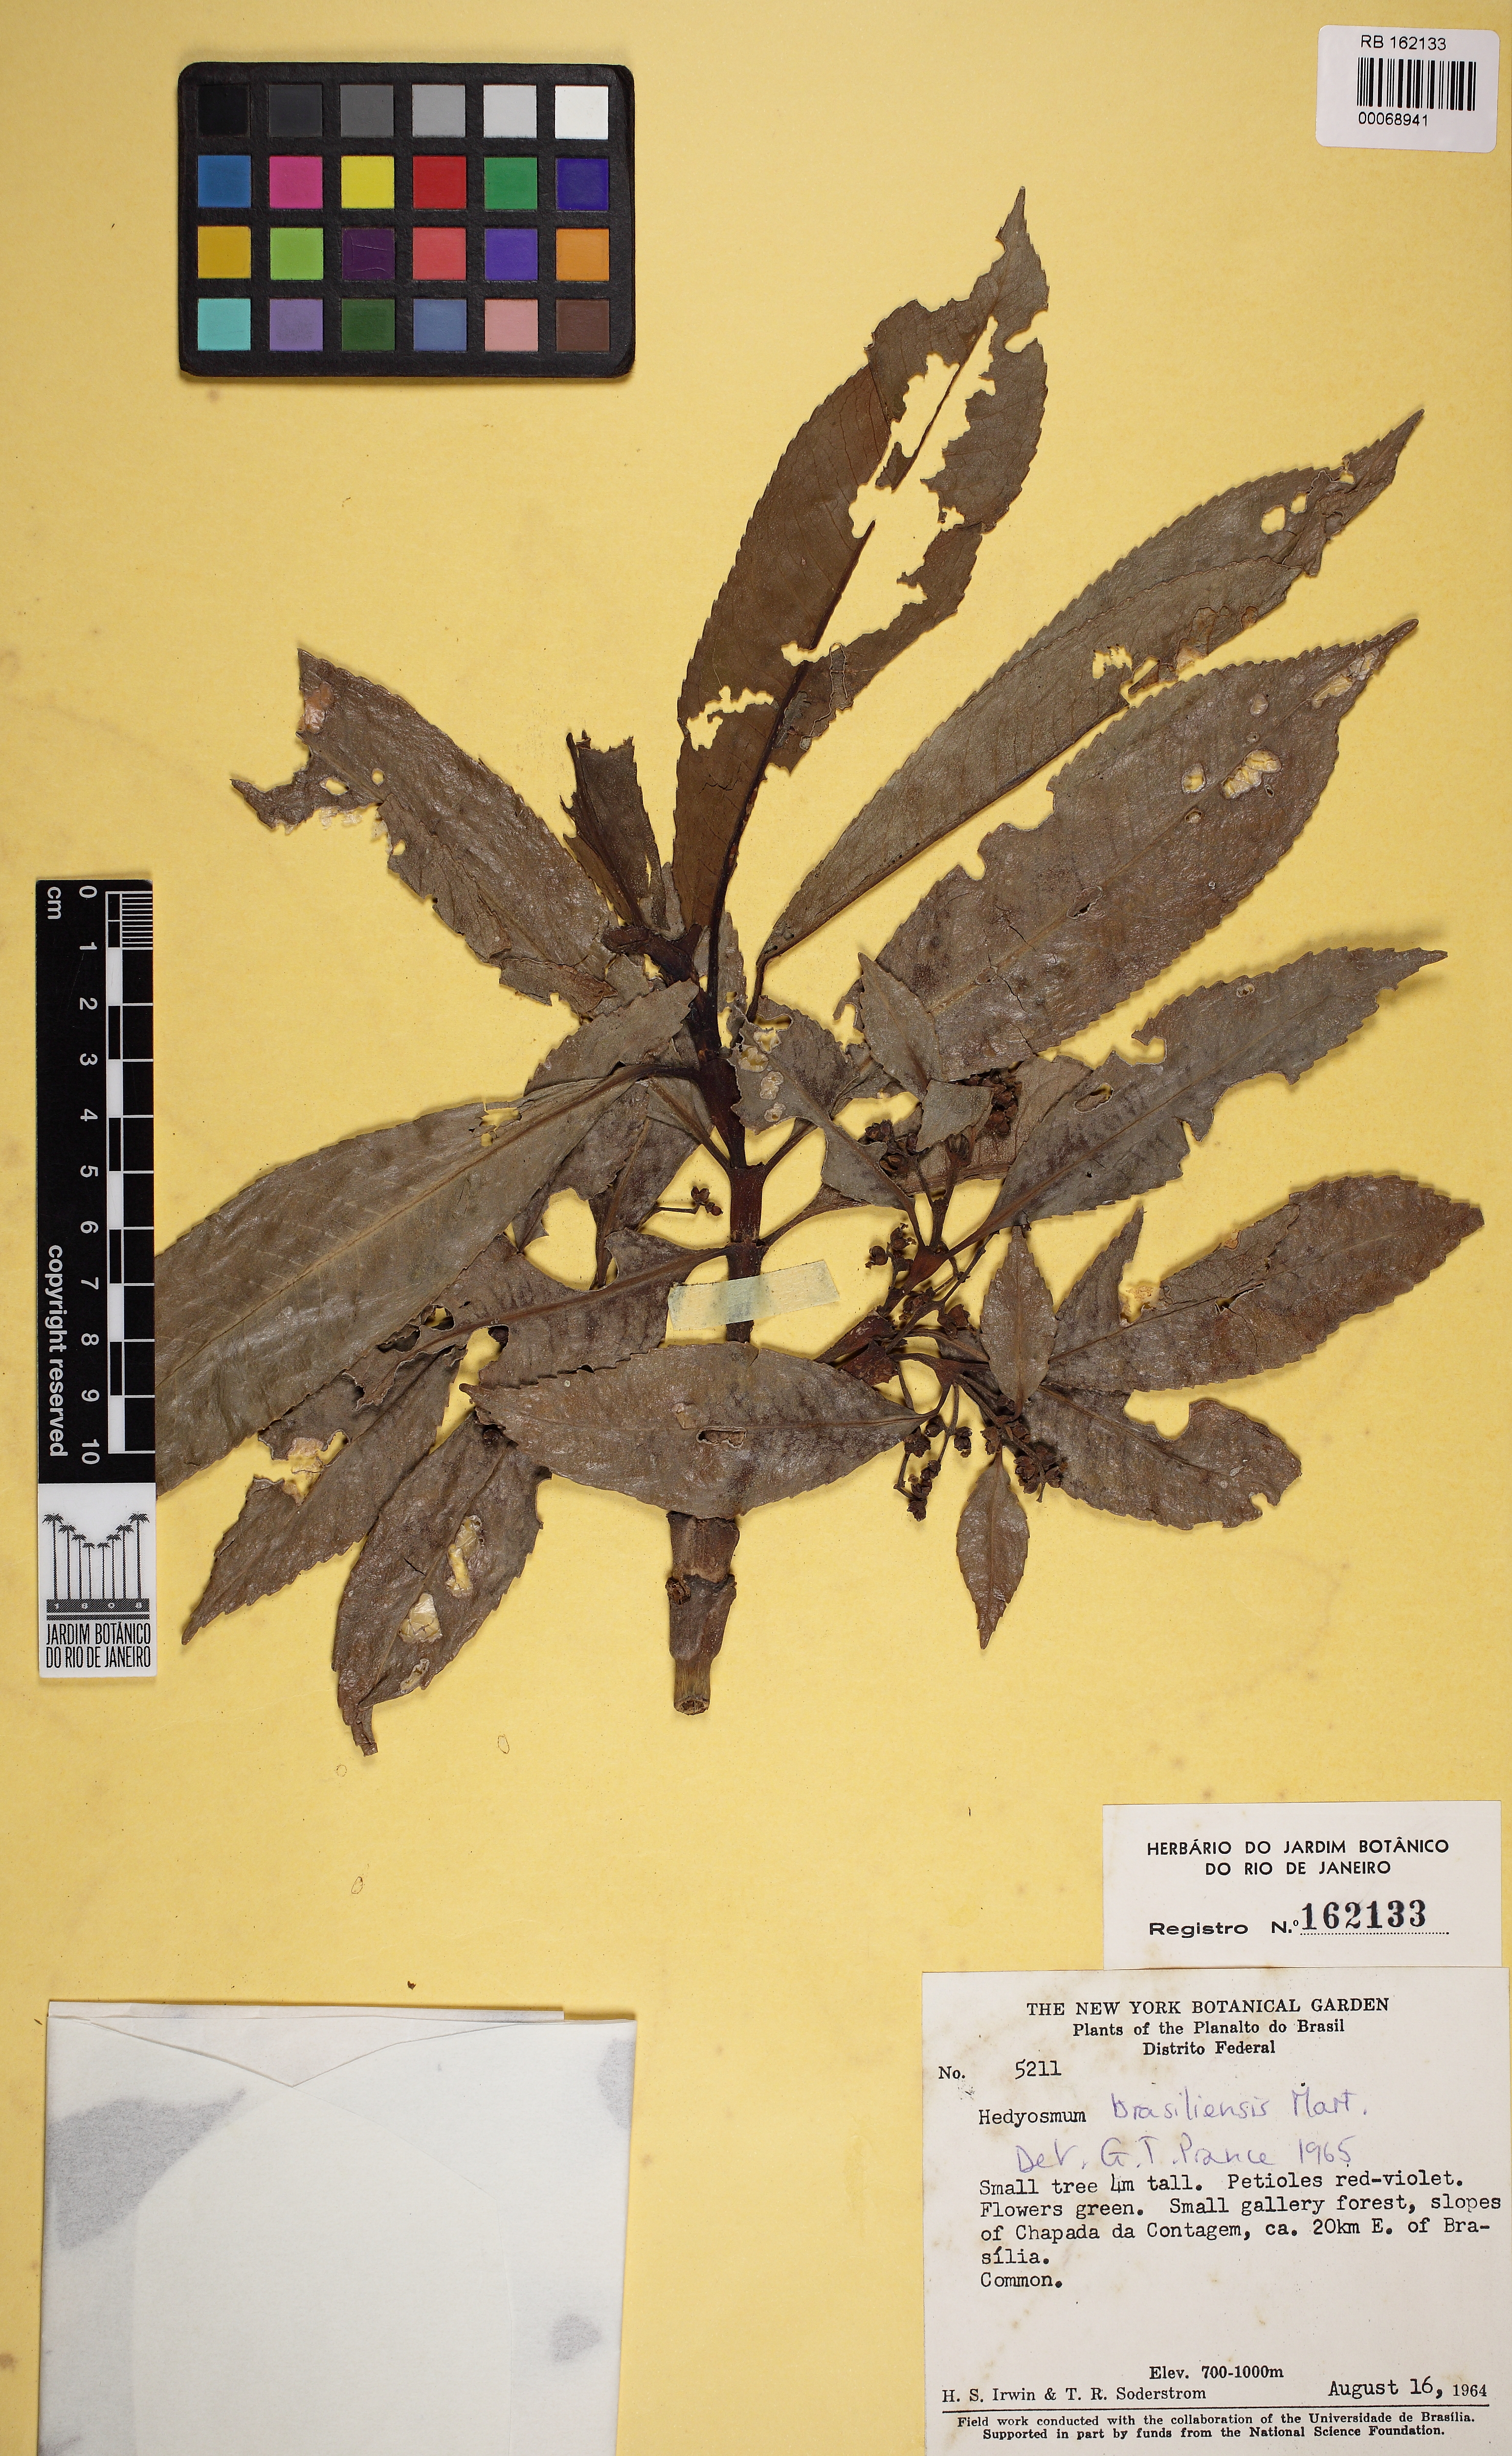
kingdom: Plantae
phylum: Tracheophyta
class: Magnoliopsida
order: Chloranthales
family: Chloranthaceae
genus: Hedyosmum
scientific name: Hedyosmum brasiliense
